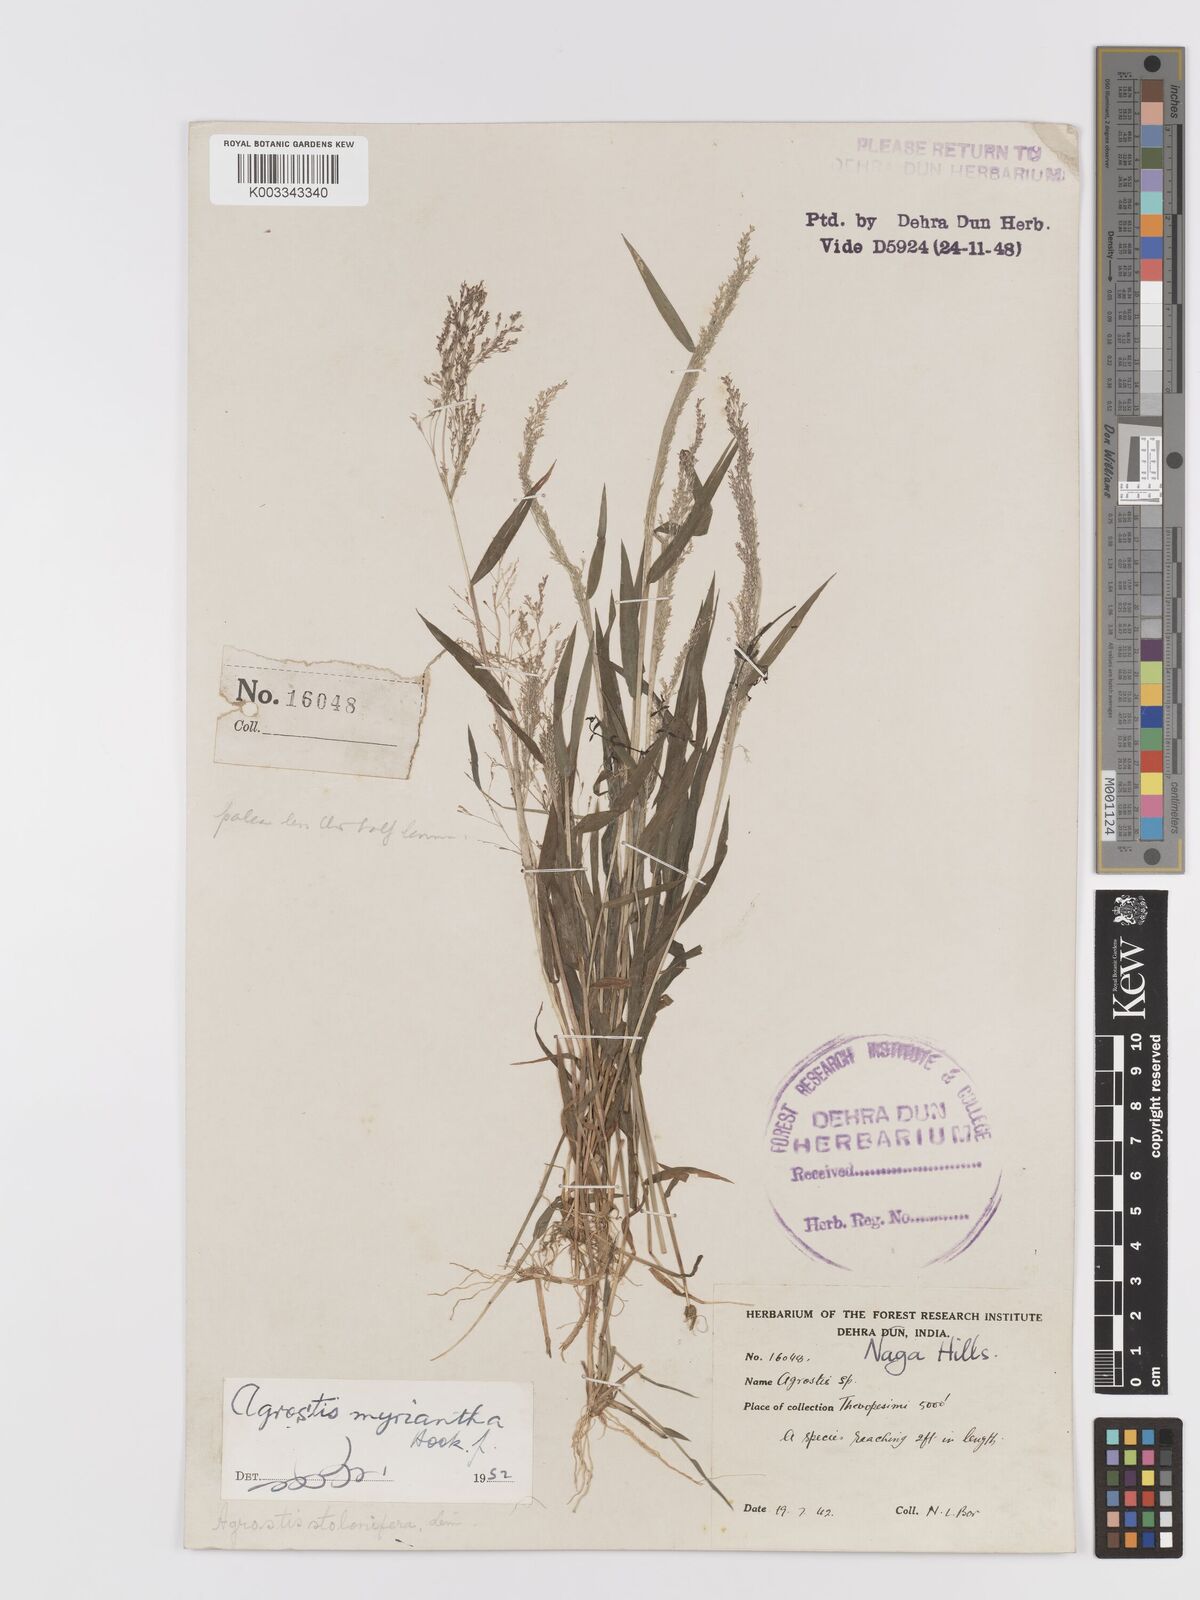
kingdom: Plantae
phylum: Tracheophyta
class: Liliopsida
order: Poales
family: Poaceae
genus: Agrostis
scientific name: Agrostis micrantha
